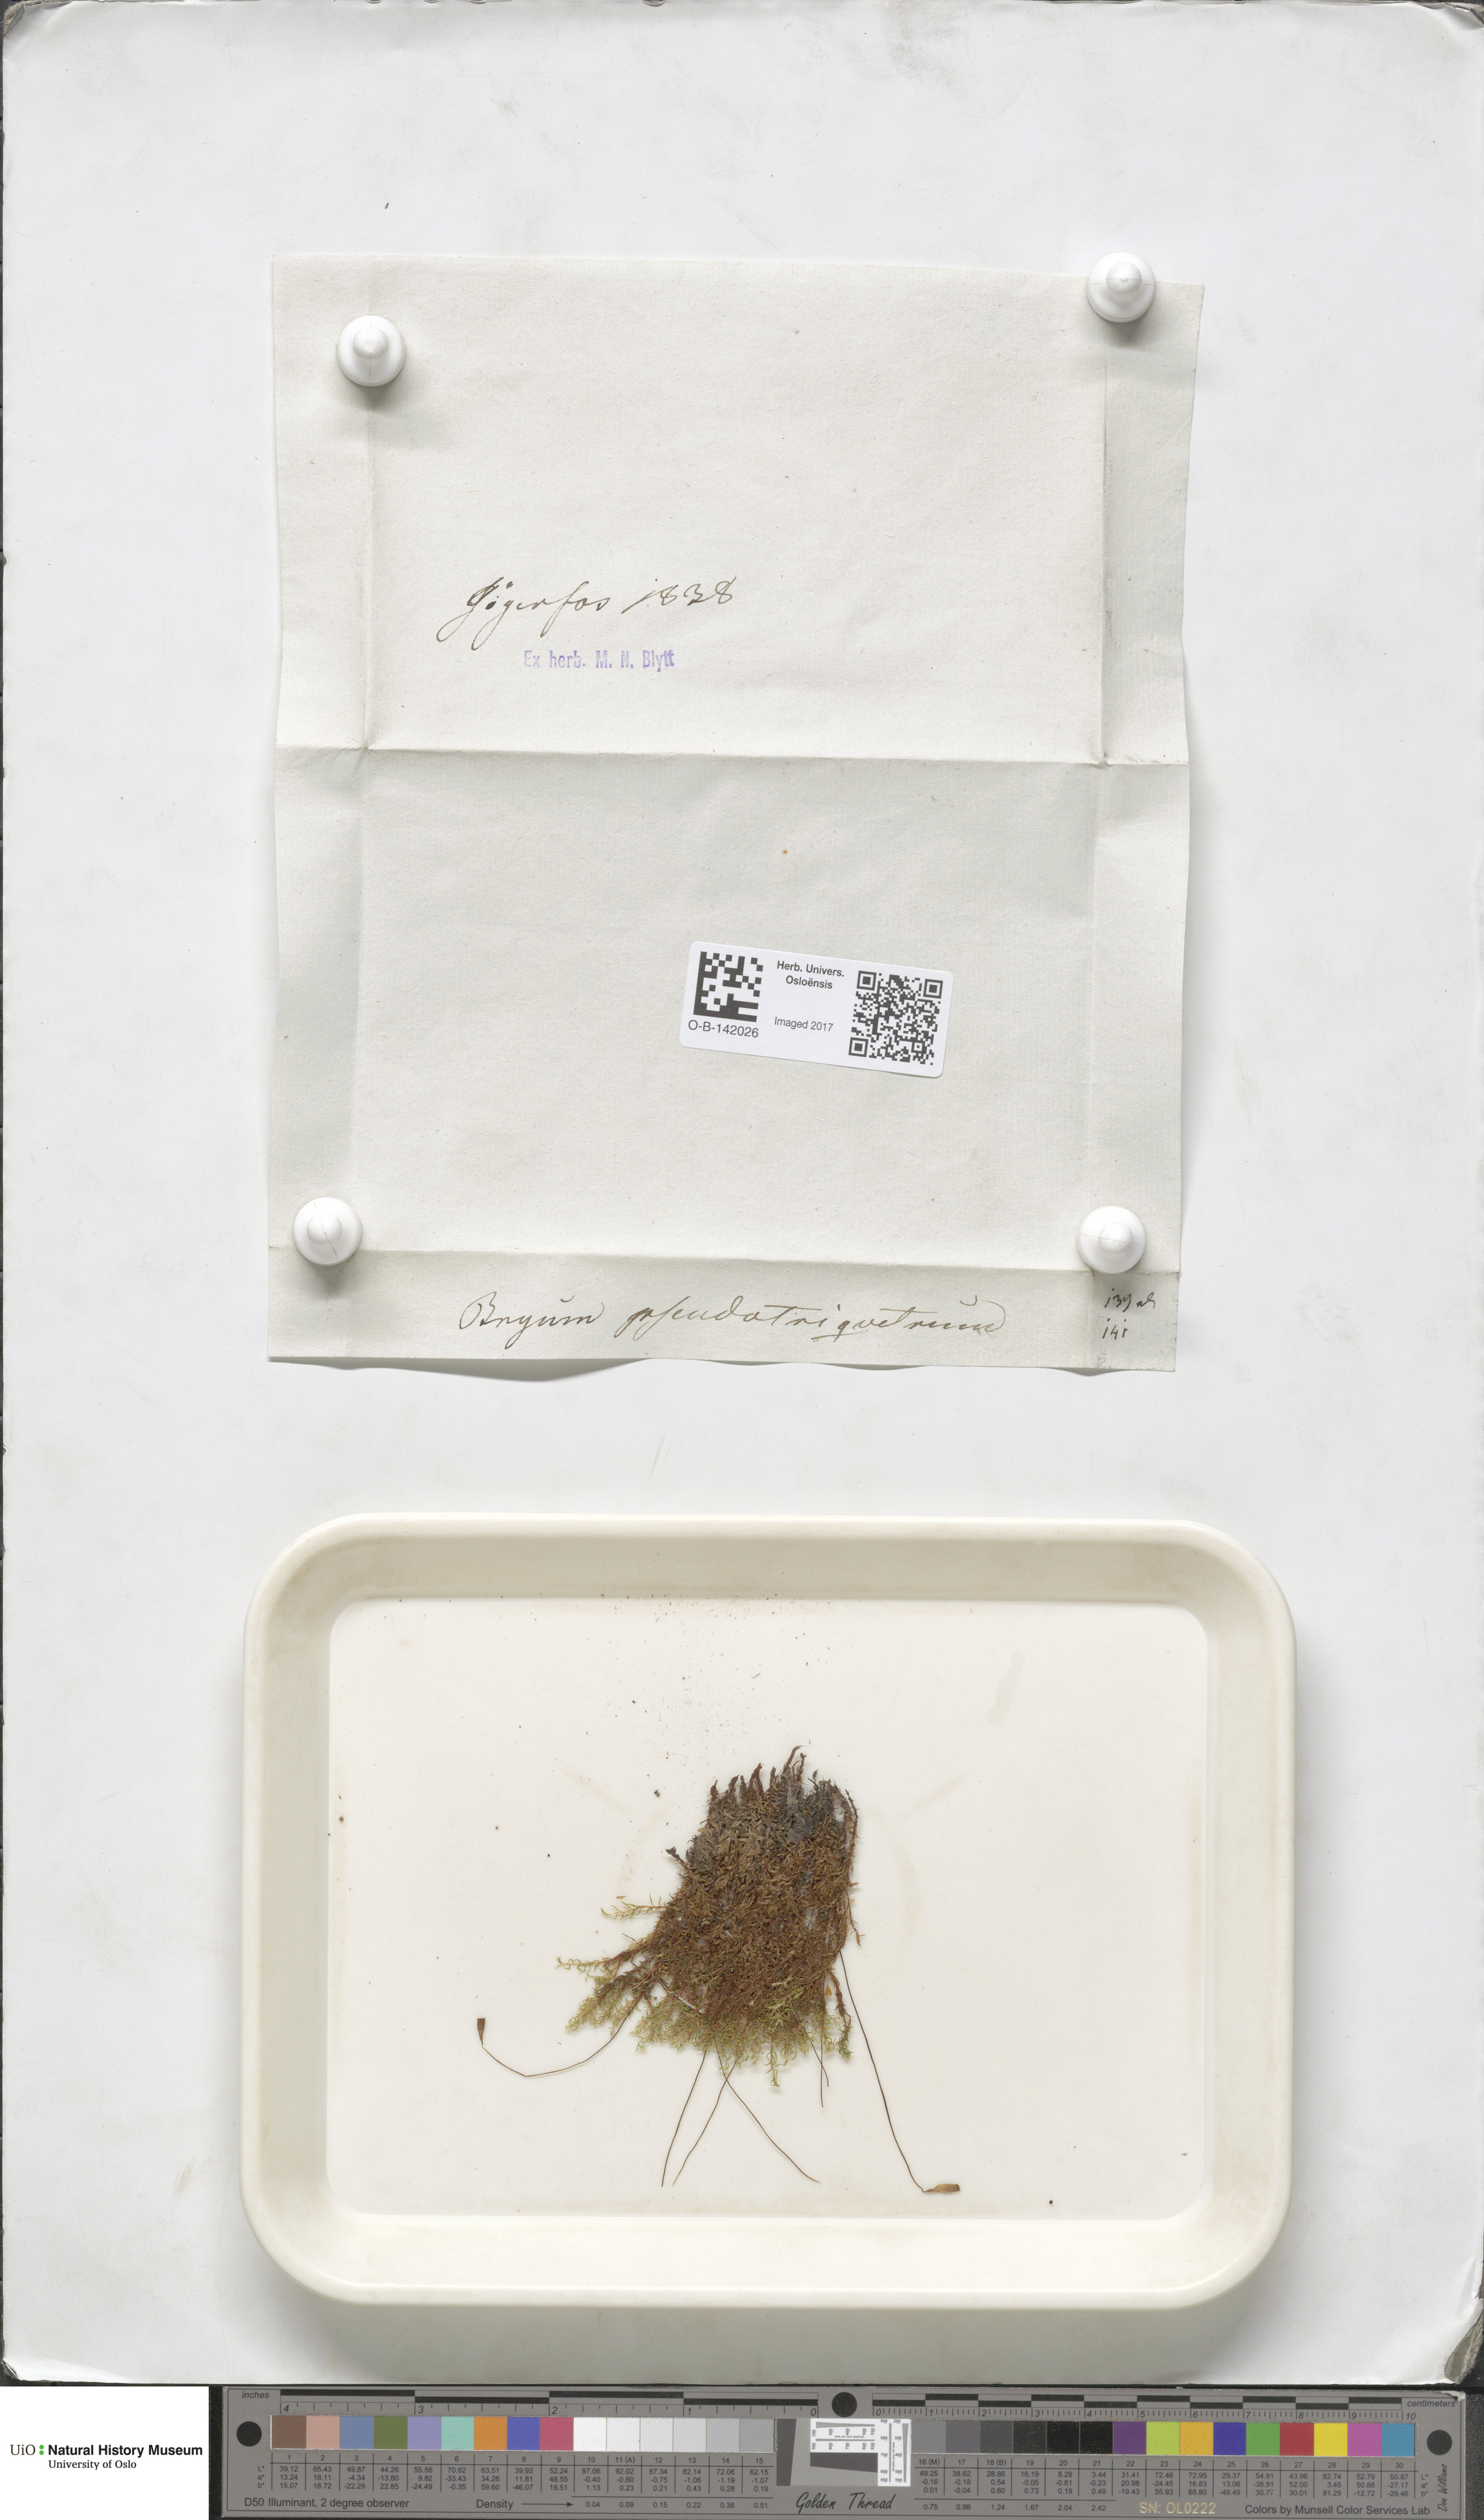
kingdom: Plantae
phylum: Bryophyta
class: Bryopsida
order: Bryales
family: Bryaceae
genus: Ptychostomum
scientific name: Ptychostomum pseudotriquetrum
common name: Long-leaved thread moss
